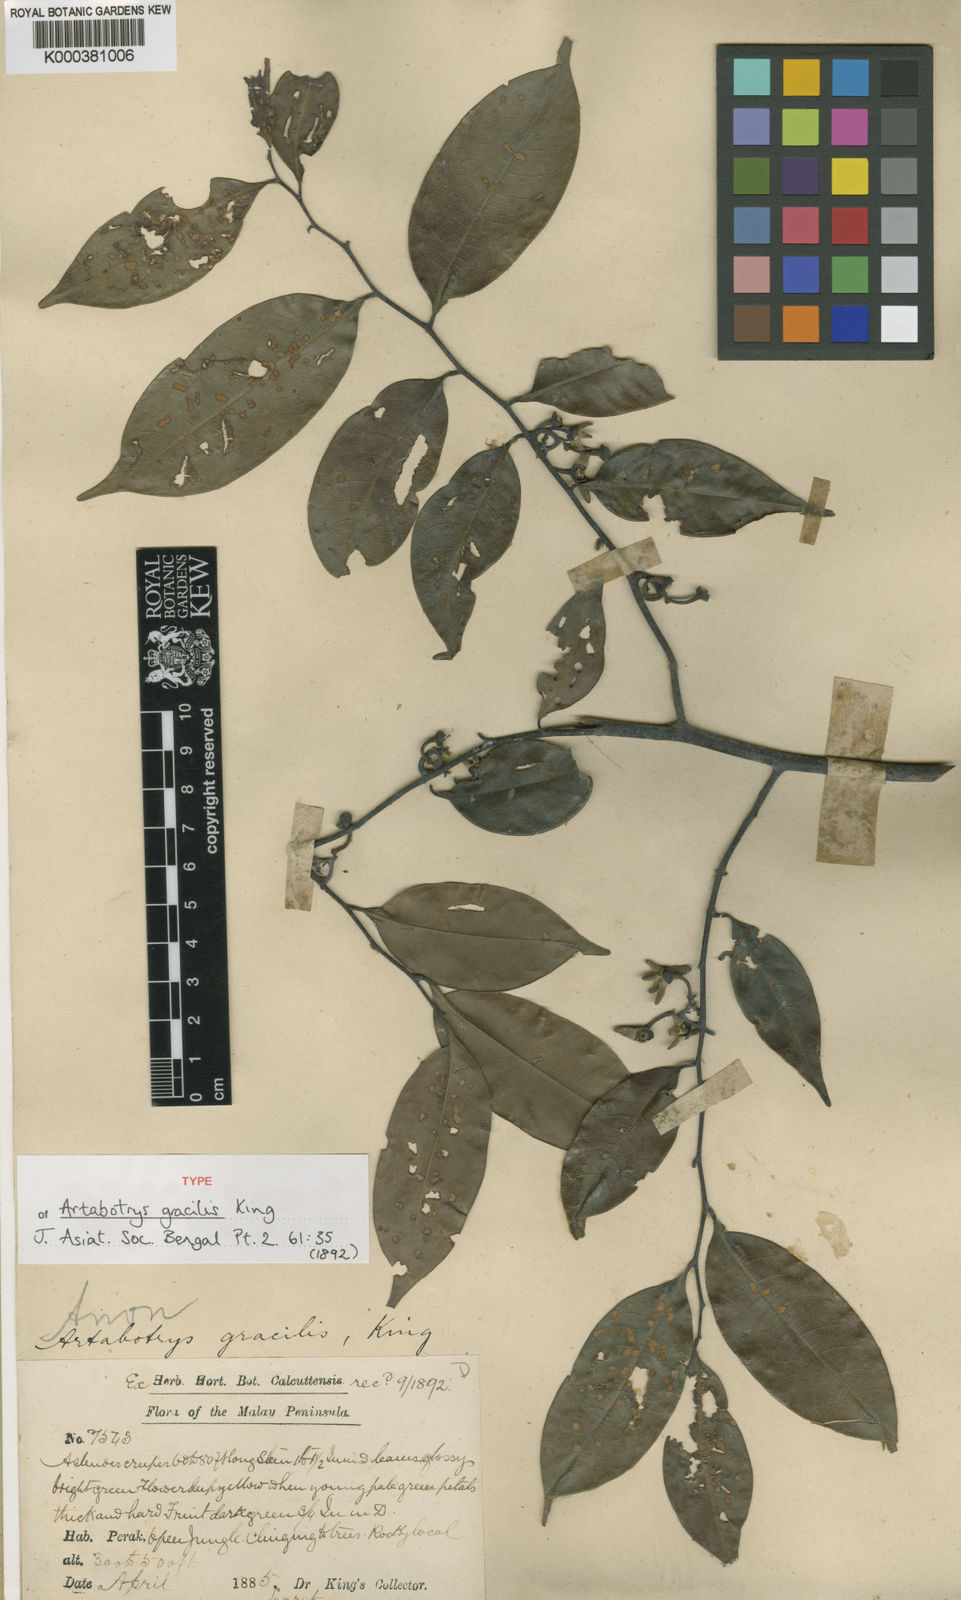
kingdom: Plantae
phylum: Tracheophyta
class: Magnoliopsida
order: Magnoliales
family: Annonaceae
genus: Artabotrys
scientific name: Artabotrys gracilis
